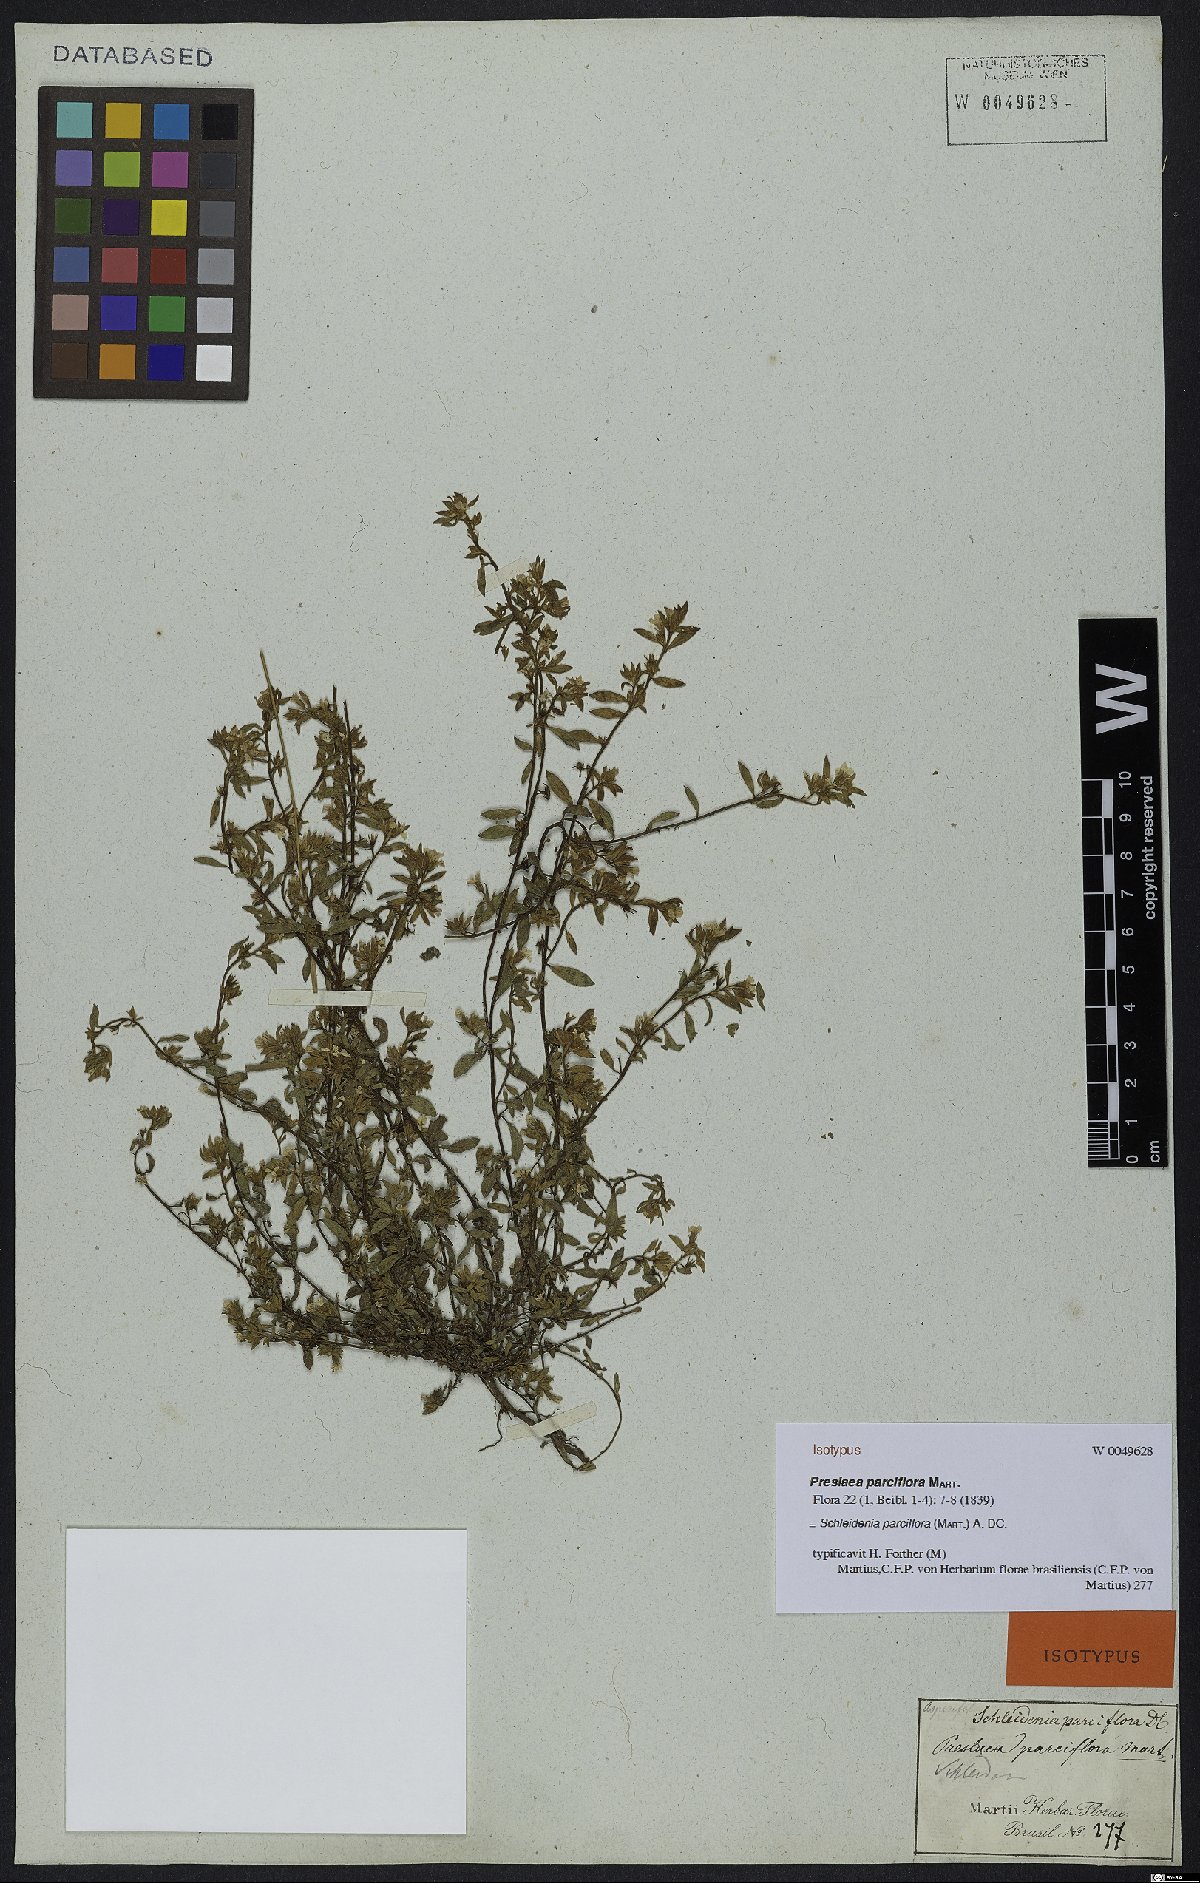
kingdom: Plantae
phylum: Tracheophyta
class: Magnoliopsida
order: Boraginales
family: Heliotropiaceae
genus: Euploca
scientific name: Euploca parciflora
